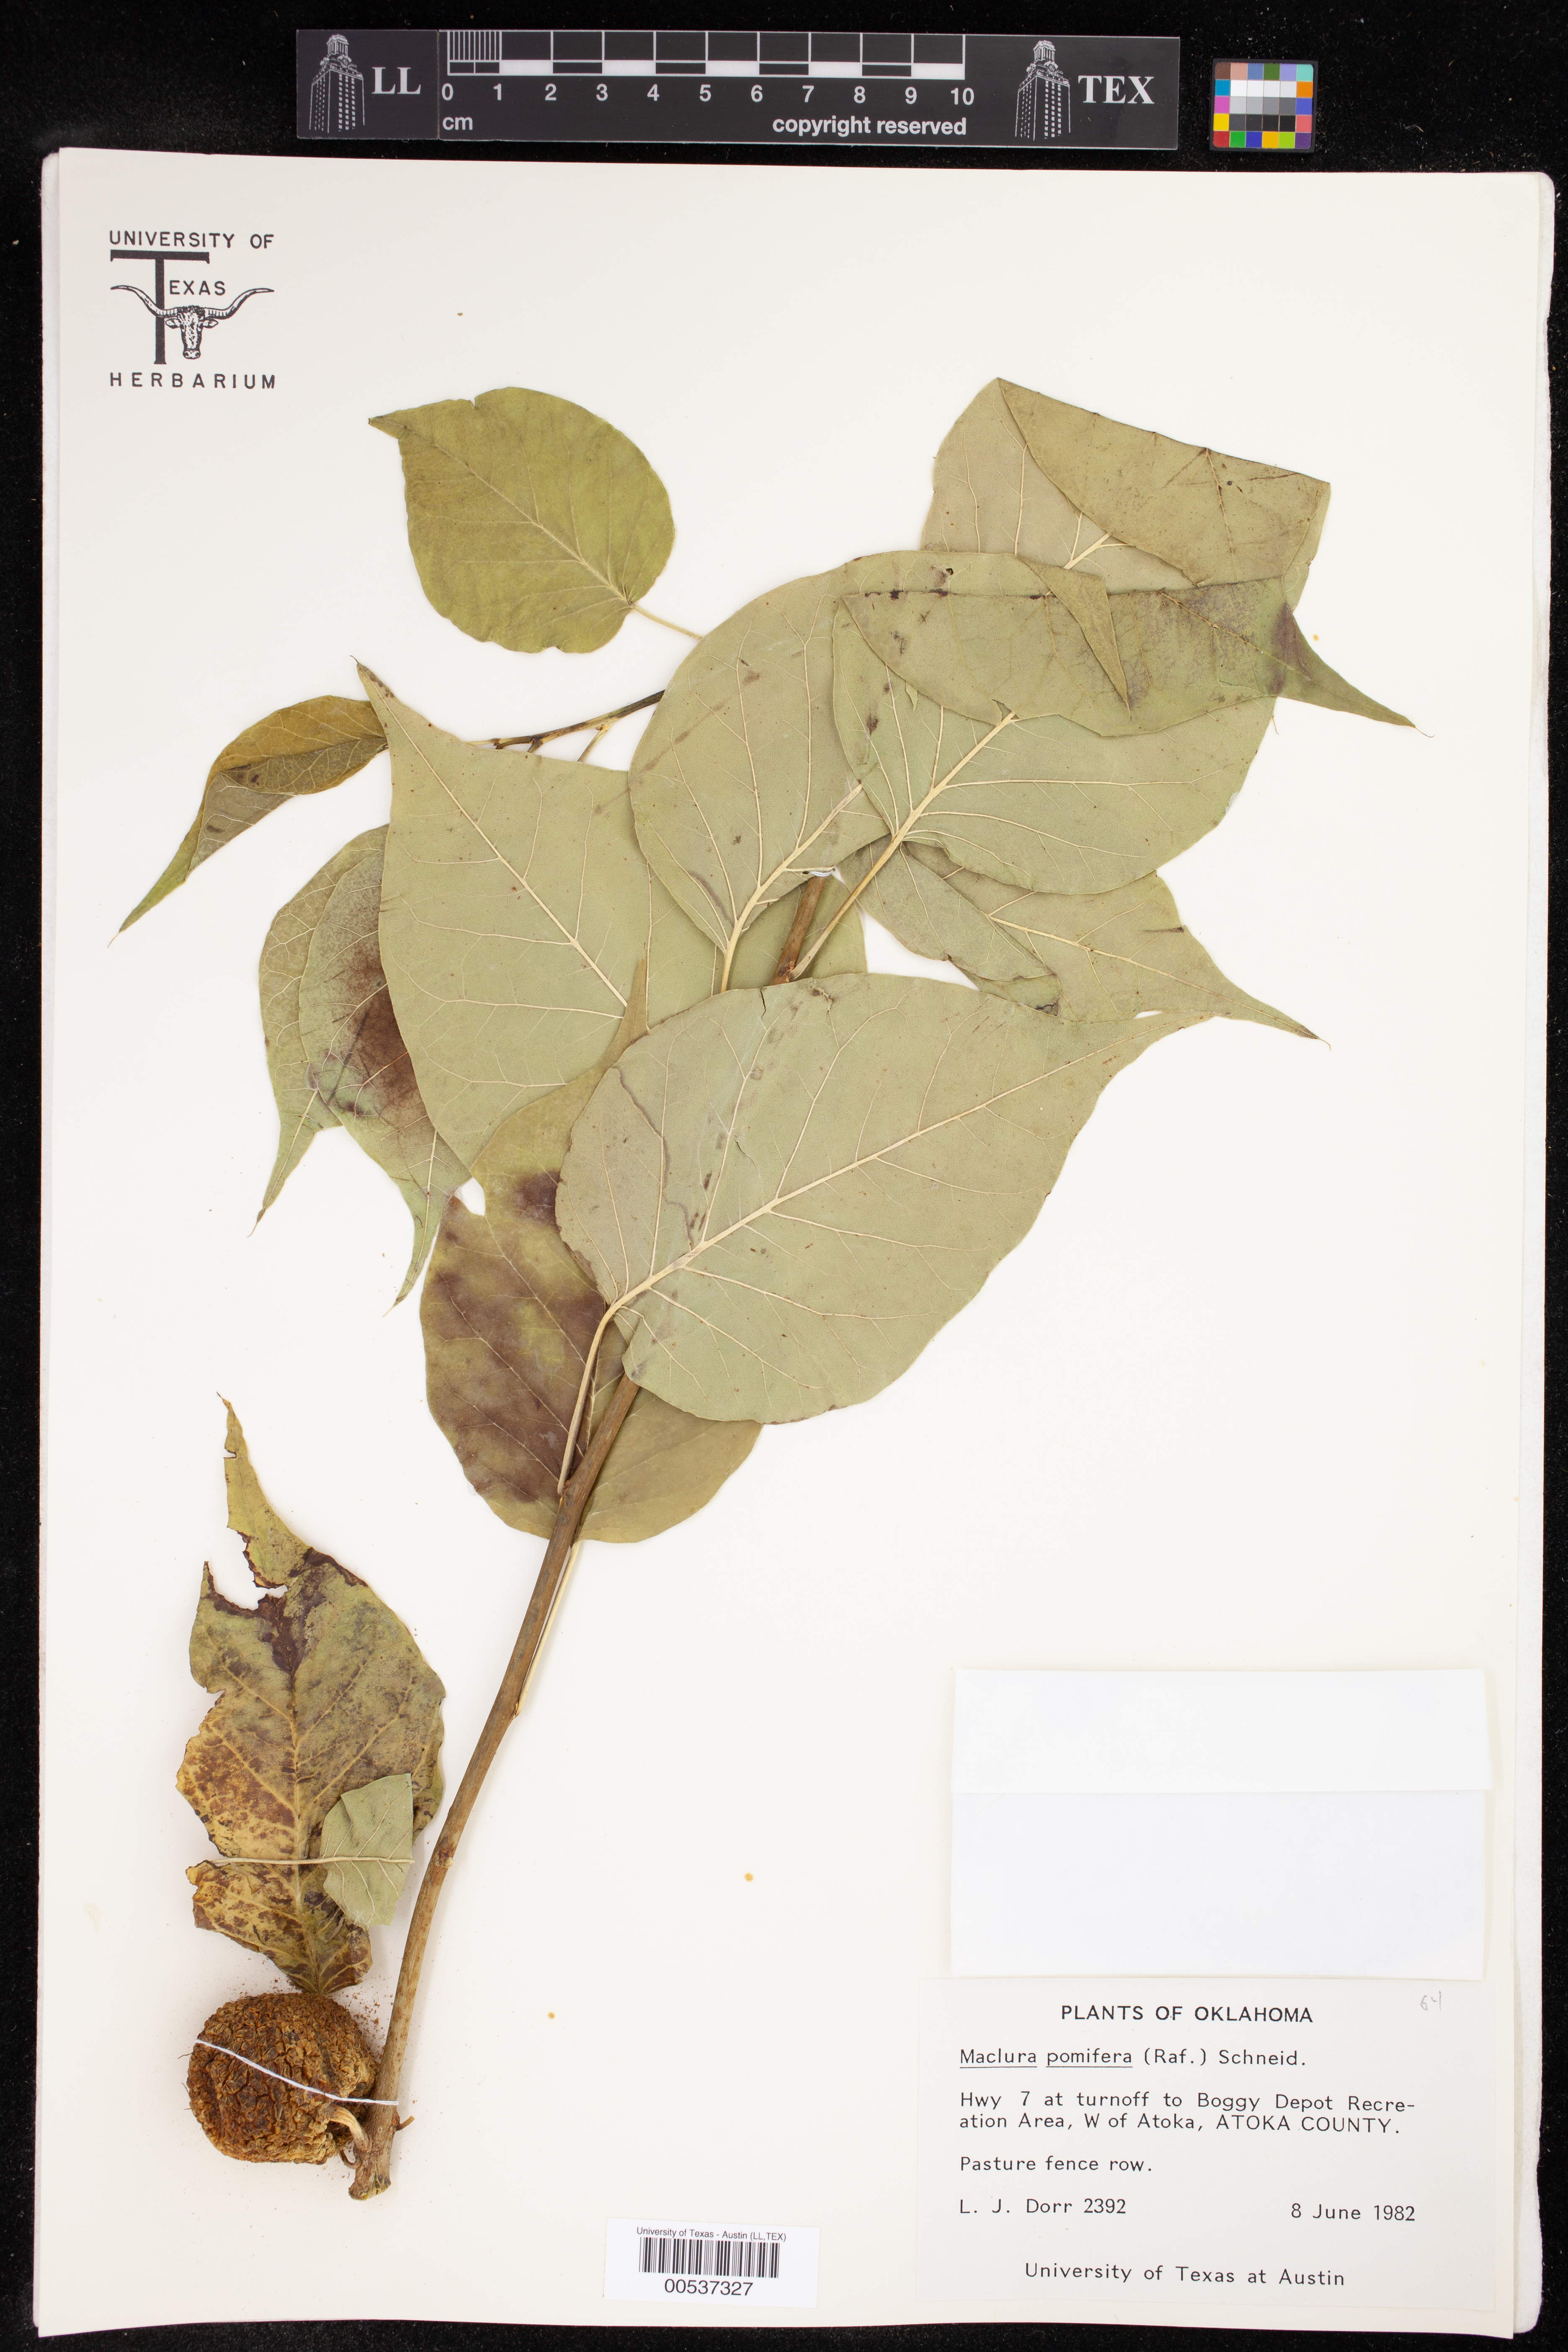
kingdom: Plantae
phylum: Tracheophyta
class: Magnoliopsida
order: Rosales
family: Moraceae
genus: Maclura
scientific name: Maclura pomifera
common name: Osage-orange
